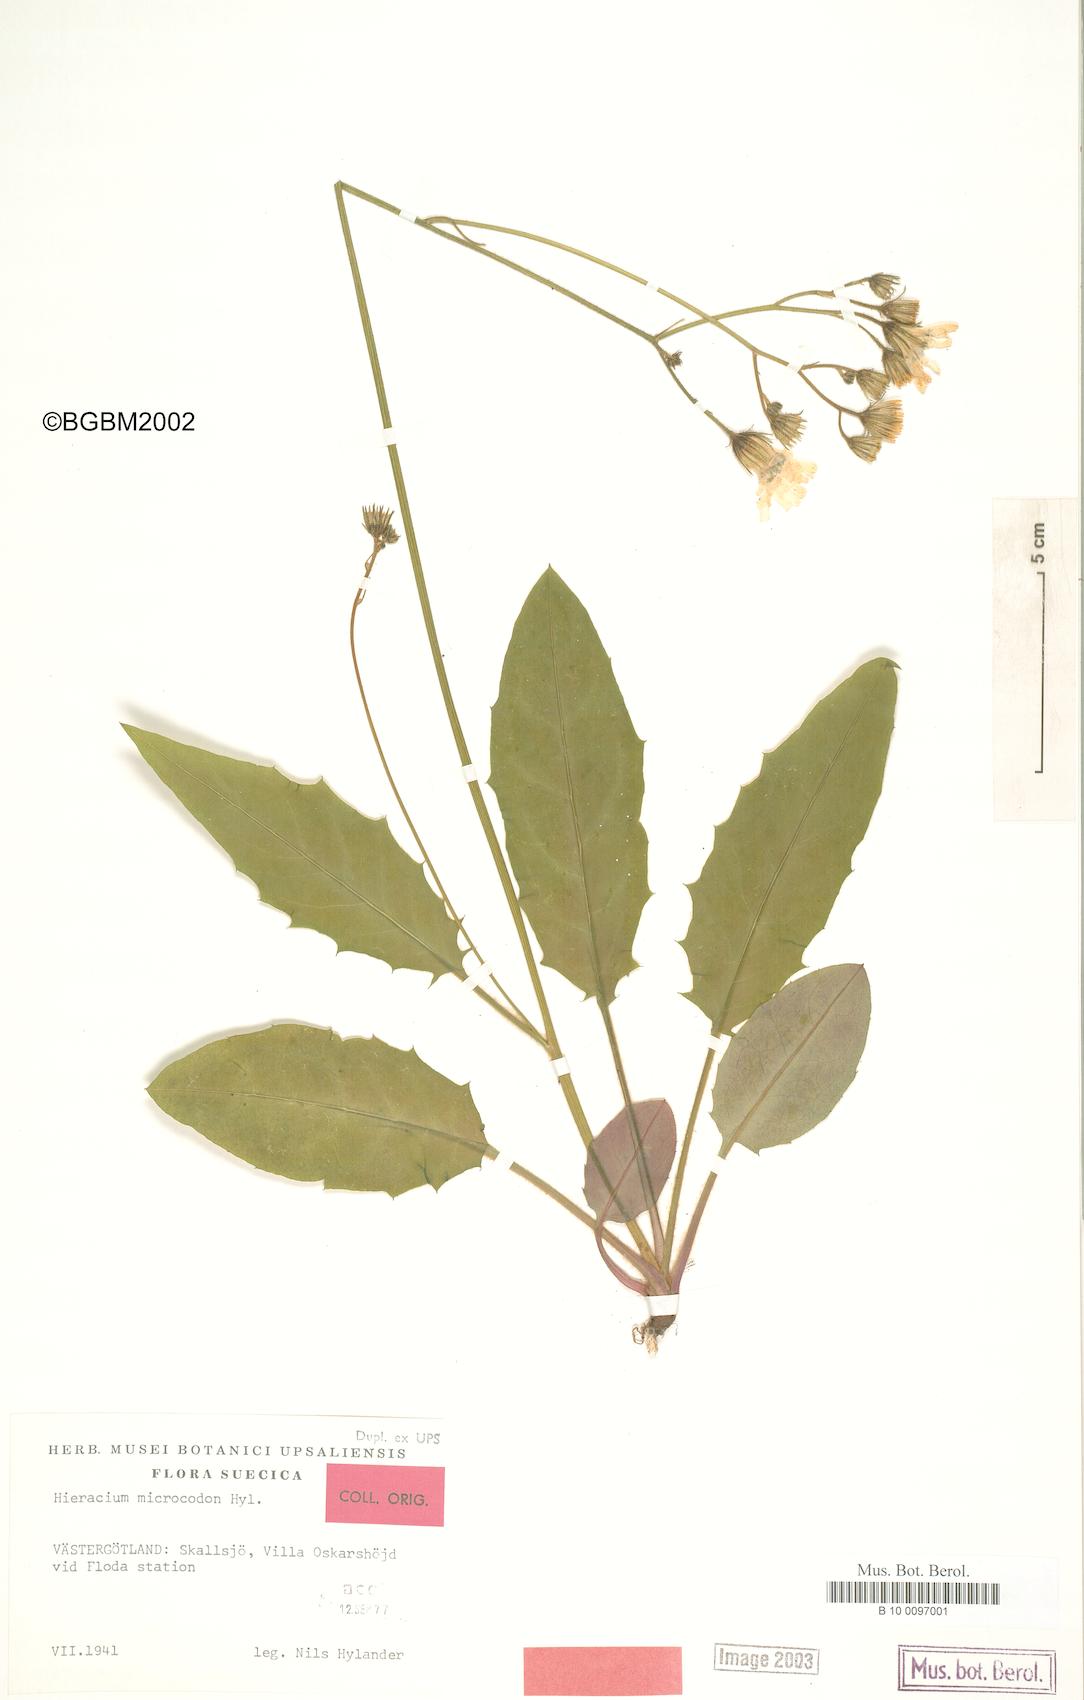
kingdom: Plantae
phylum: Tracheophyta
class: Magnoliopsida
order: Asterales
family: Asteraceae
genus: Hieracium
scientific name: Hieracium microcodon
